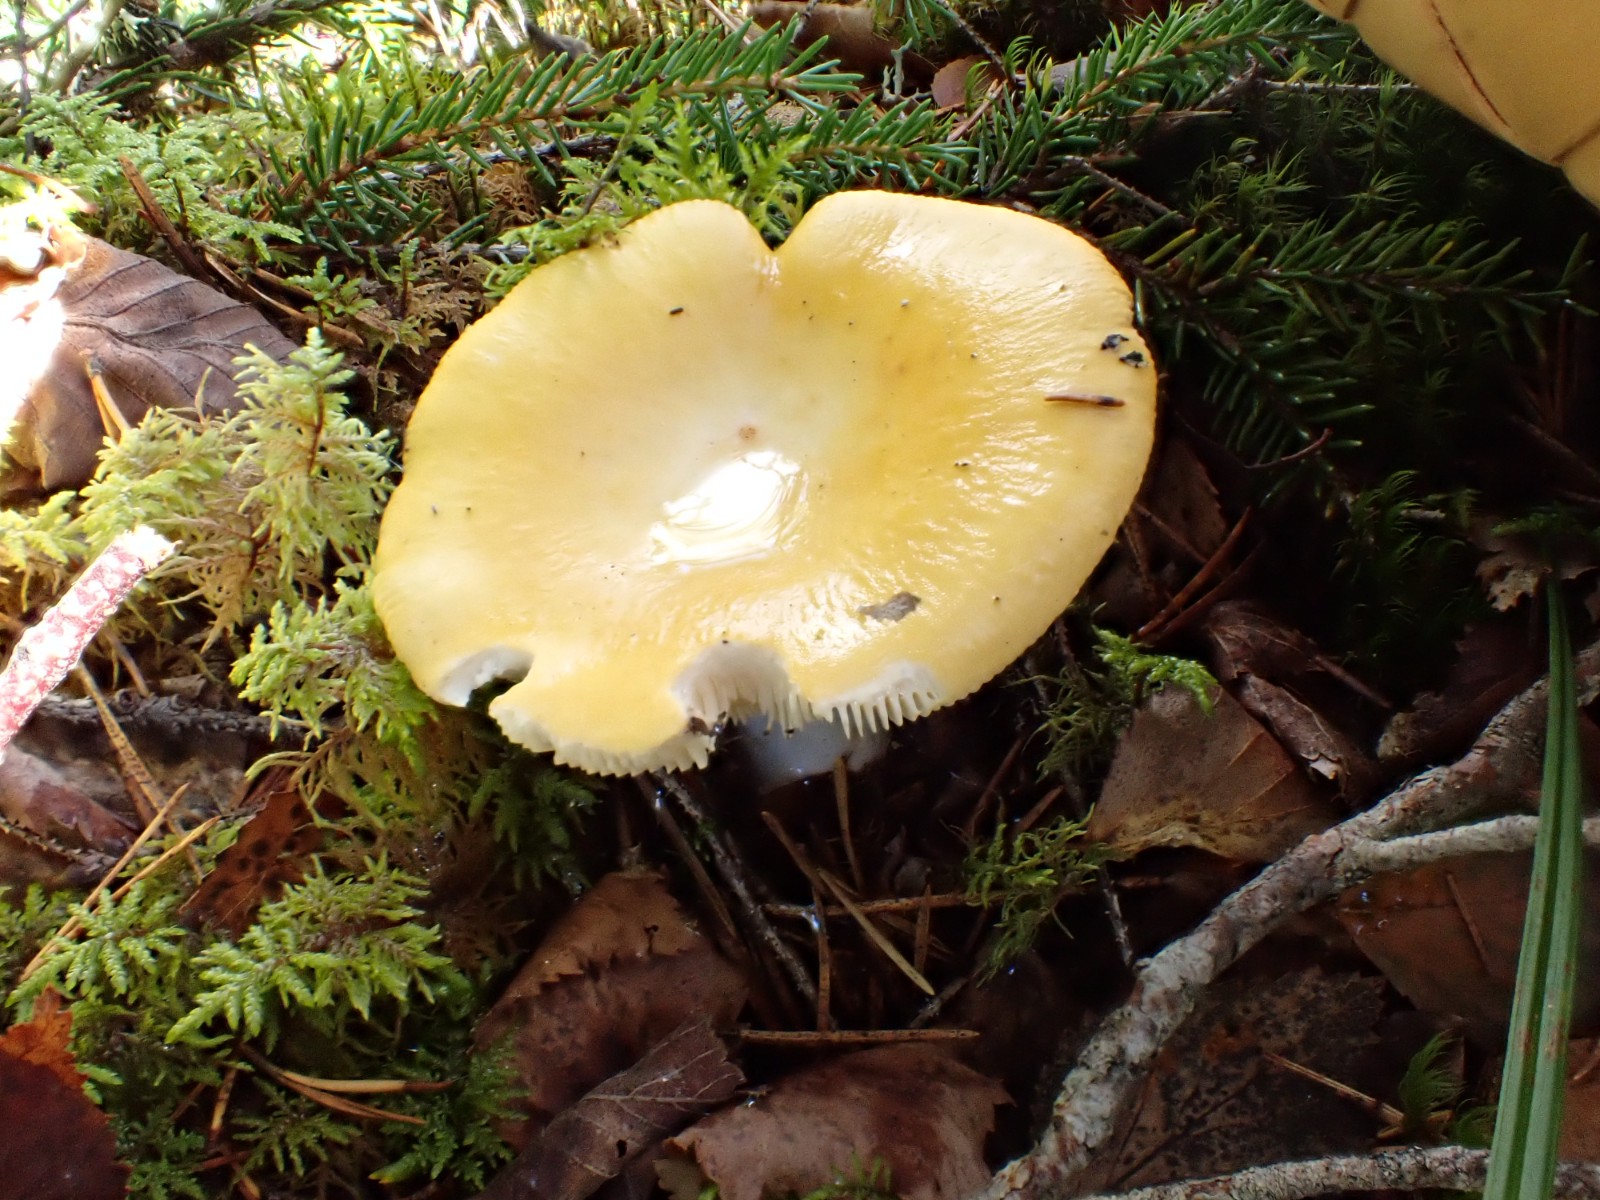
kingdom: Fungi
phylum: Basidiomycota
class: Agaricomycetes
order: Russulales
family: Russulaceae
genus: Russula
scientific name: Russula claroflava
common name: birke-skørhat
